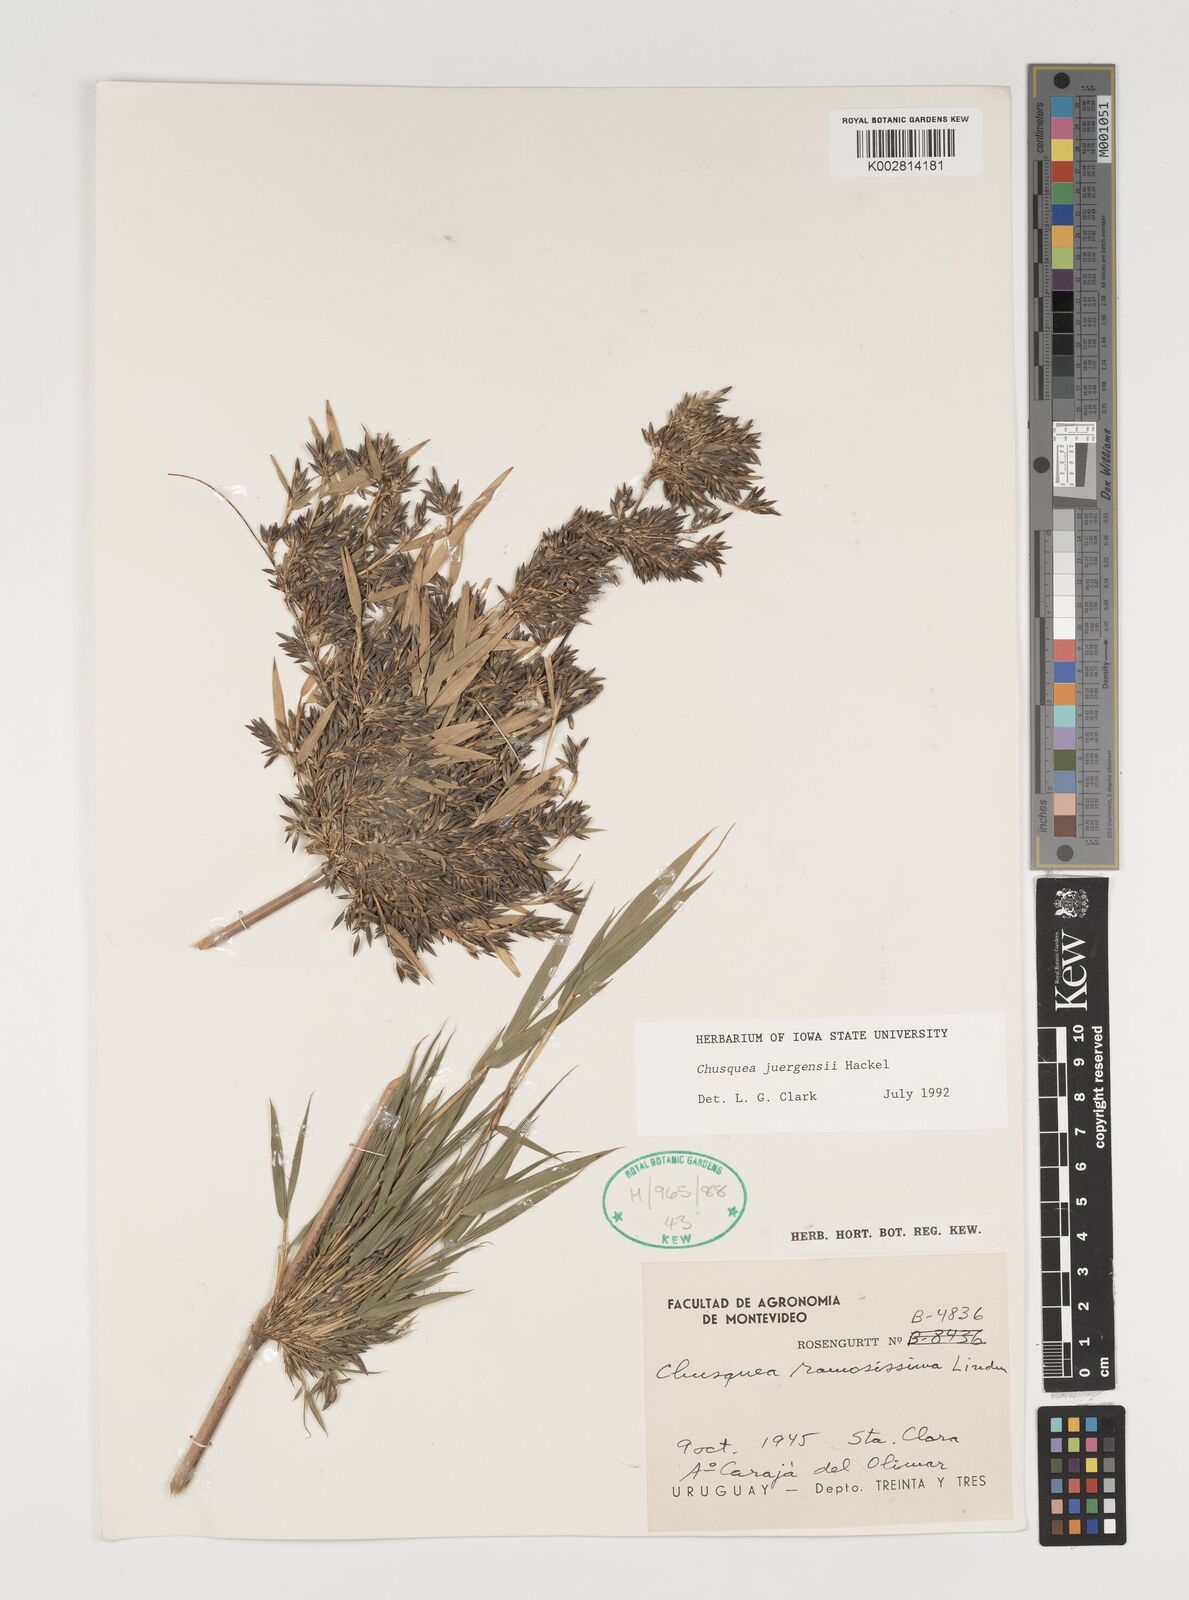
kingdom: Plantae
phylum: Tracheophyta
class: Liliopsida
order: Poales
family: Poaceae
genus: Chusquea
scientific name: Chusquea juergensii
